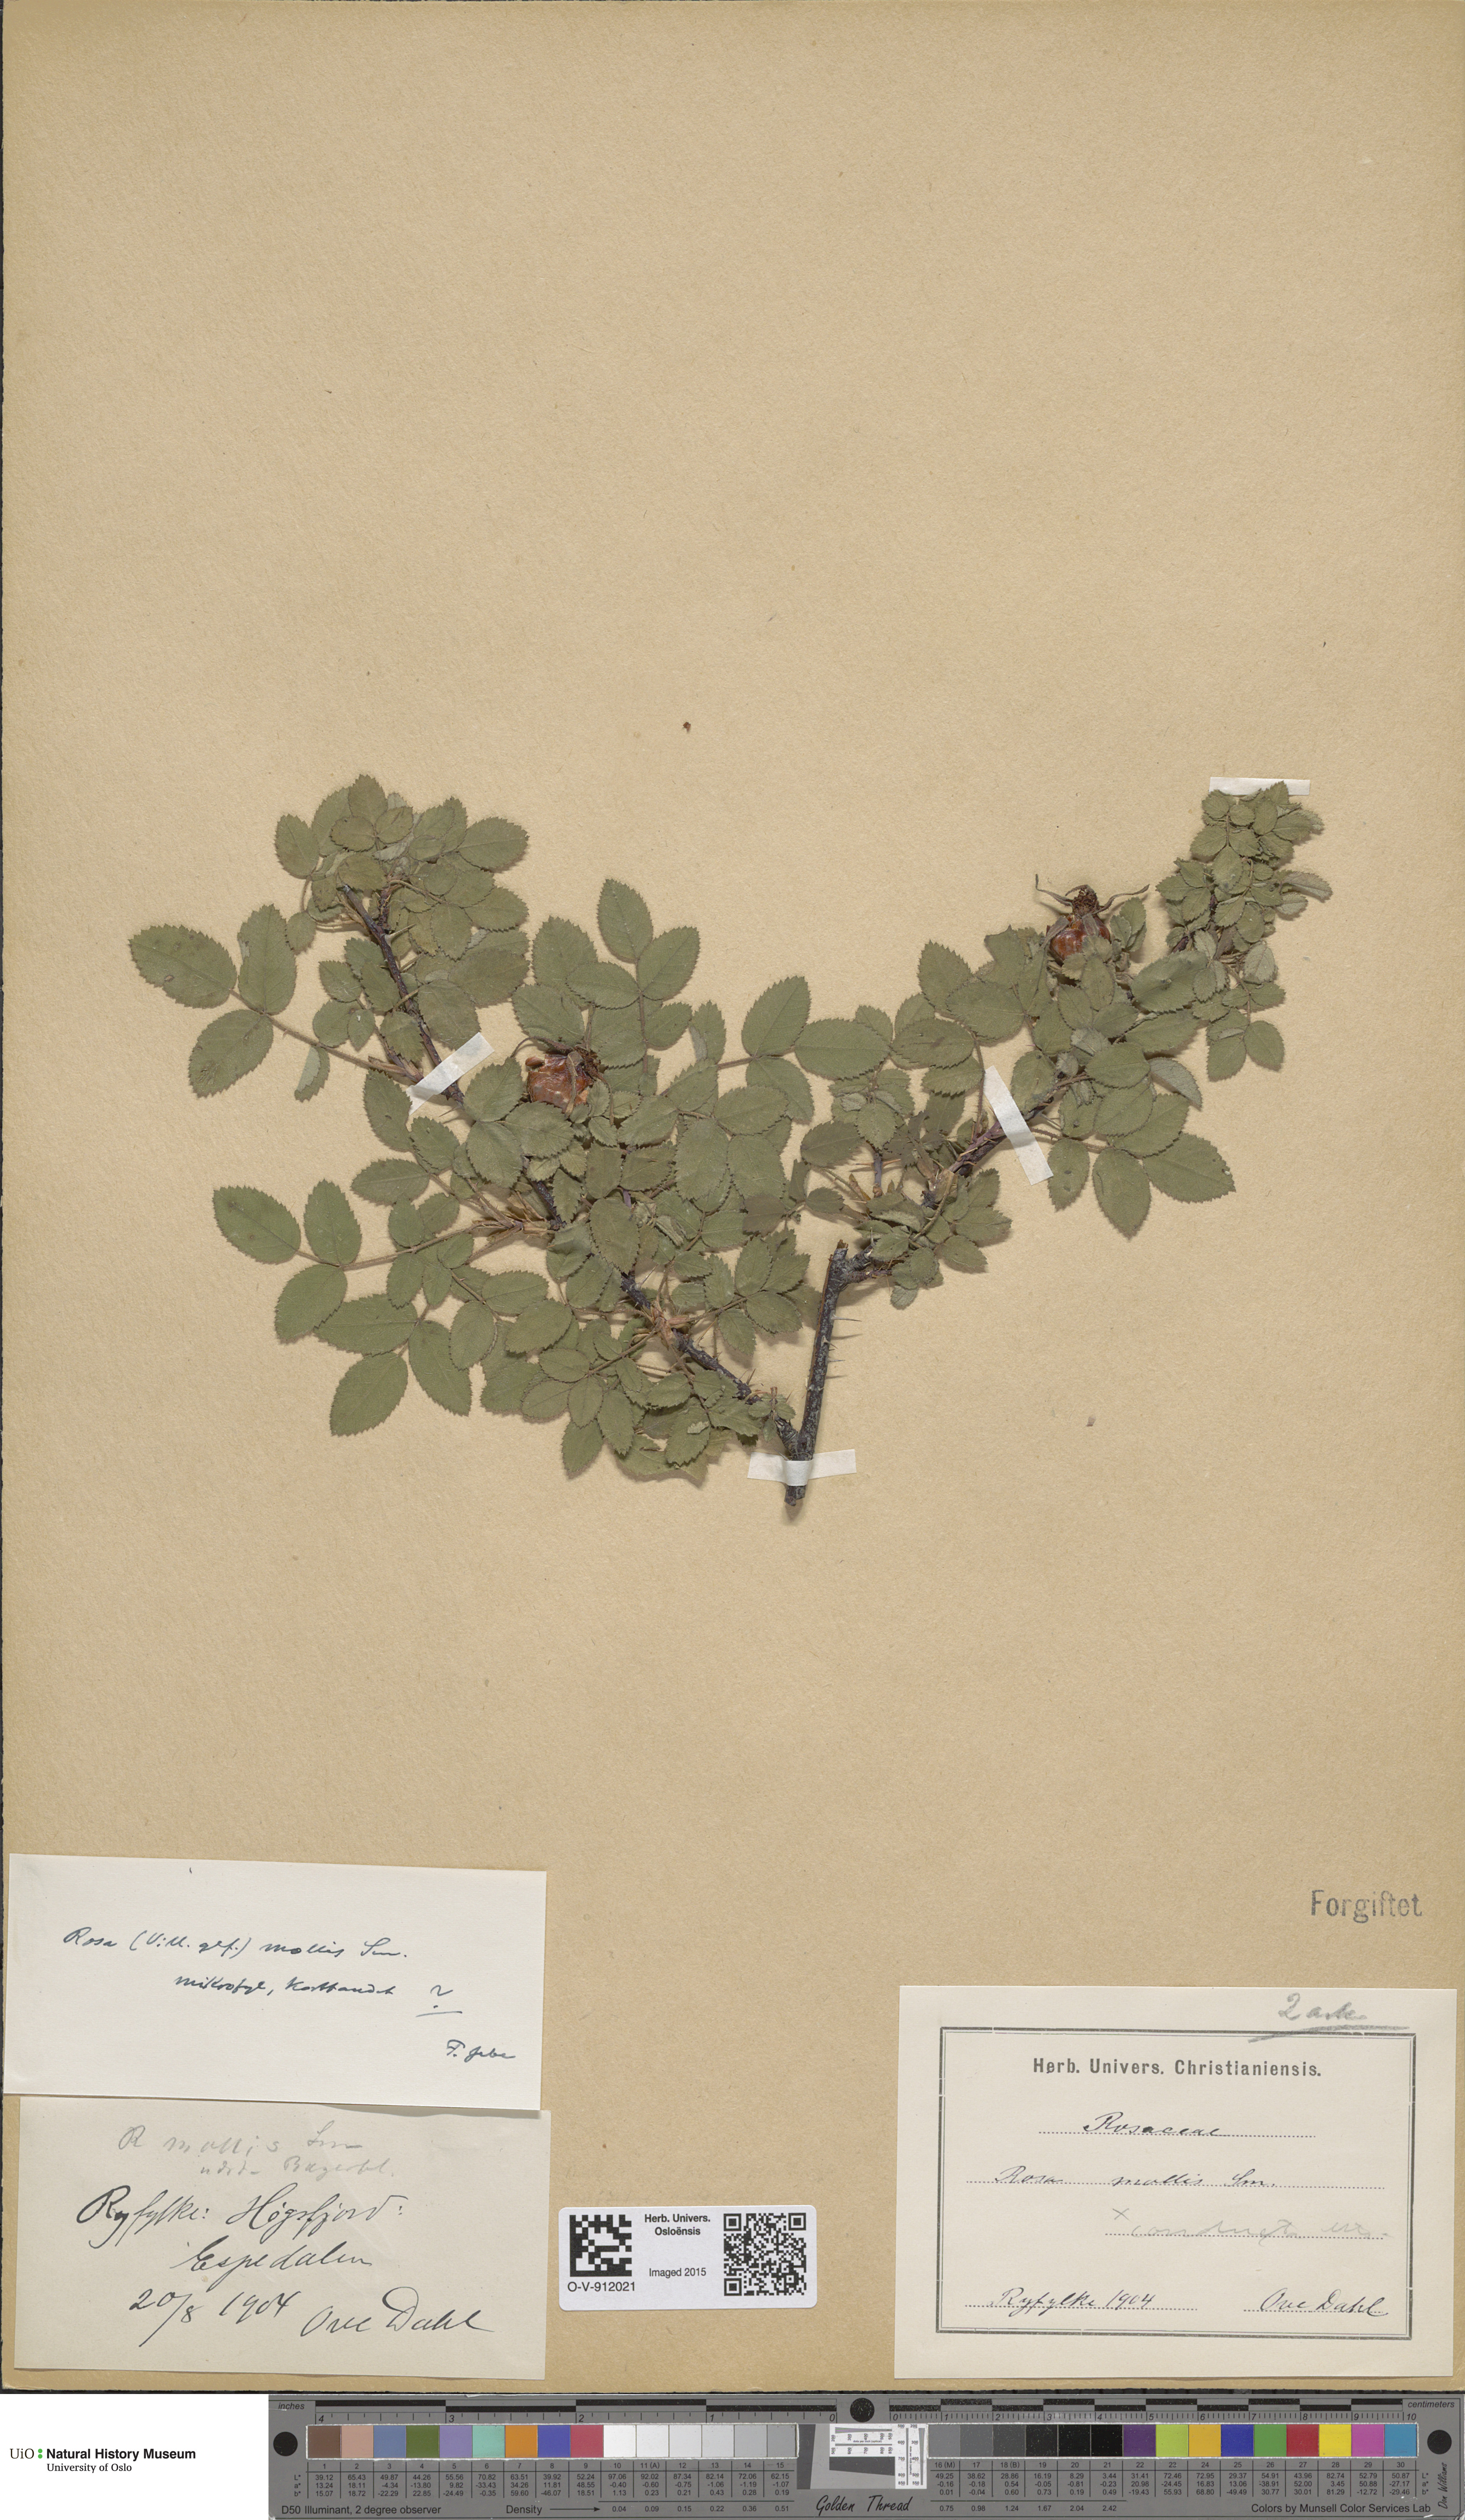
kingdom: Plantae
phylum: Tracheophyta
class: Magnoliopsida
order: Rosales
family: Rosaceae
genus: Rosa
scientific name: Rosa mollis
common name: Rose
